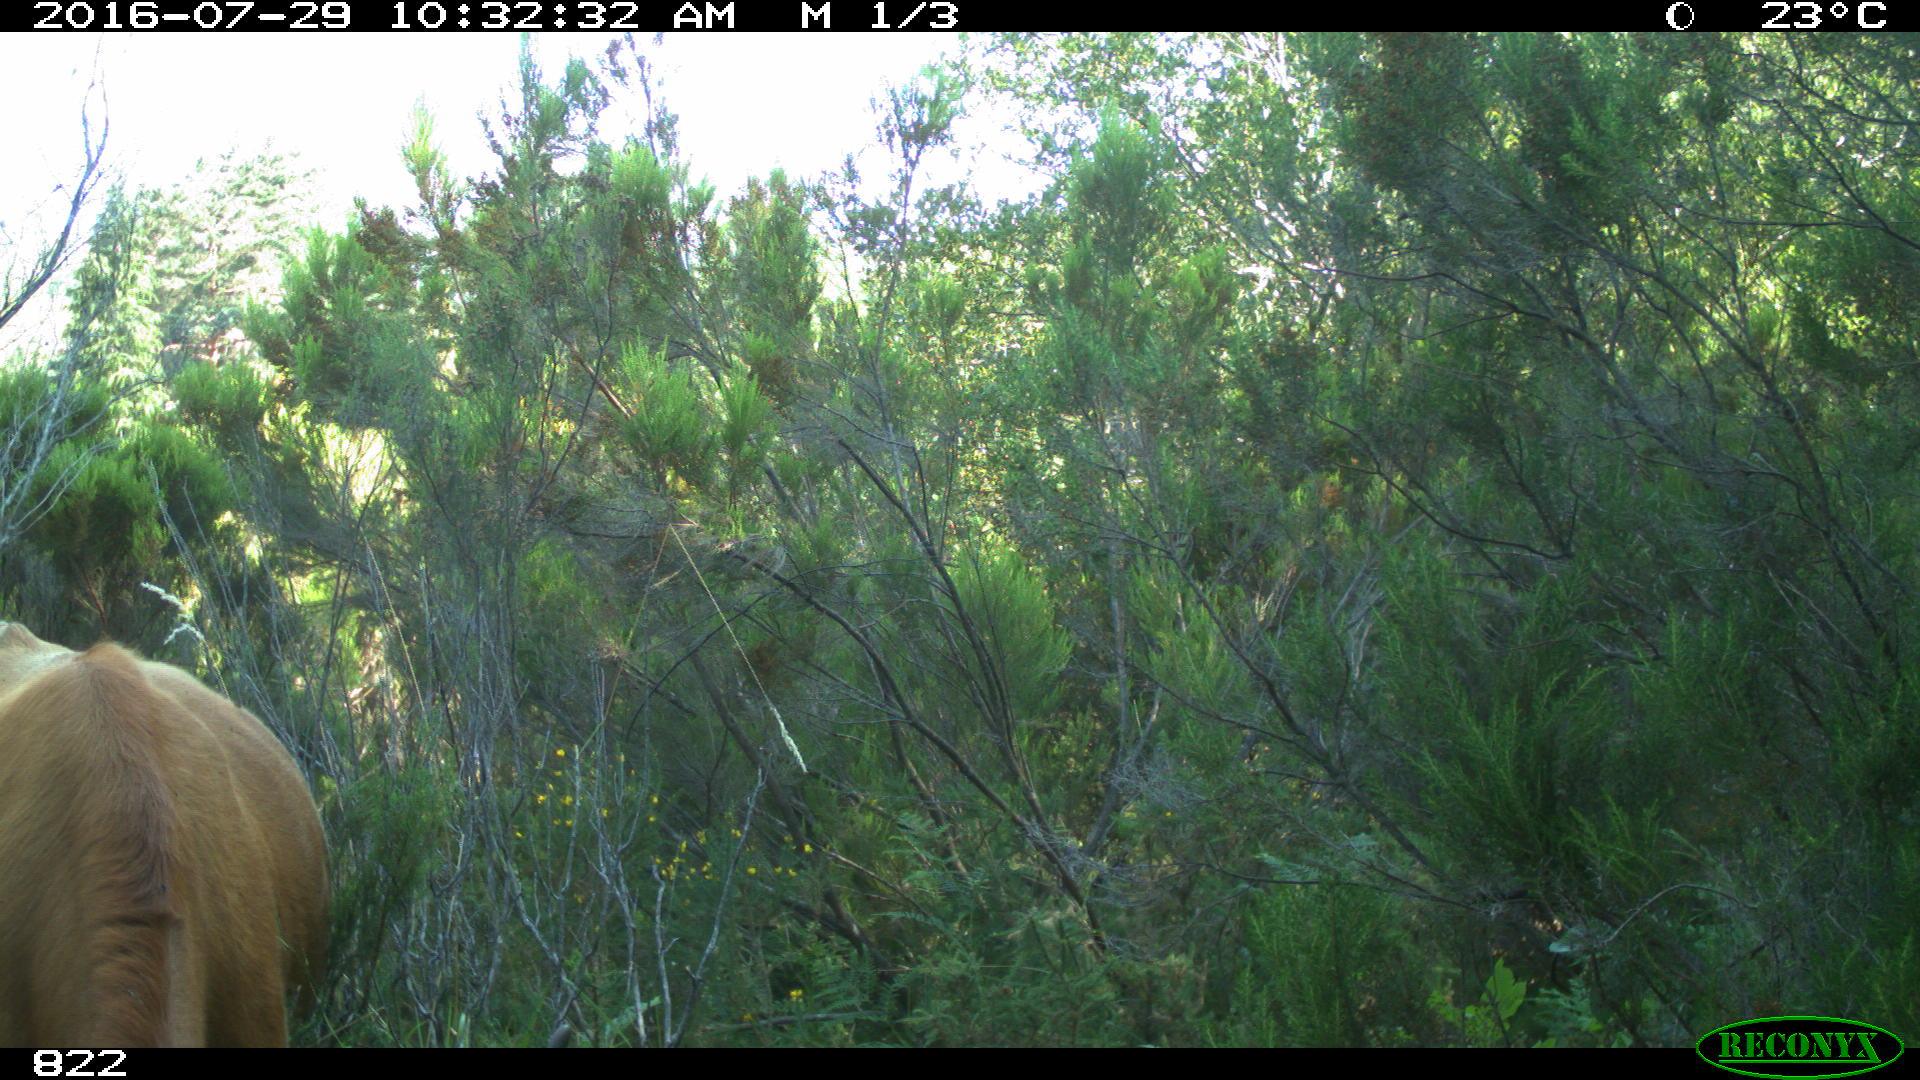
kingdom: Animalia
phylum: Chordata
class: Mammalia
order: Artiodactyla
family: Bovidae
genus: Bos
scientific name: Bos taurus
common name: Domesticated cattle
